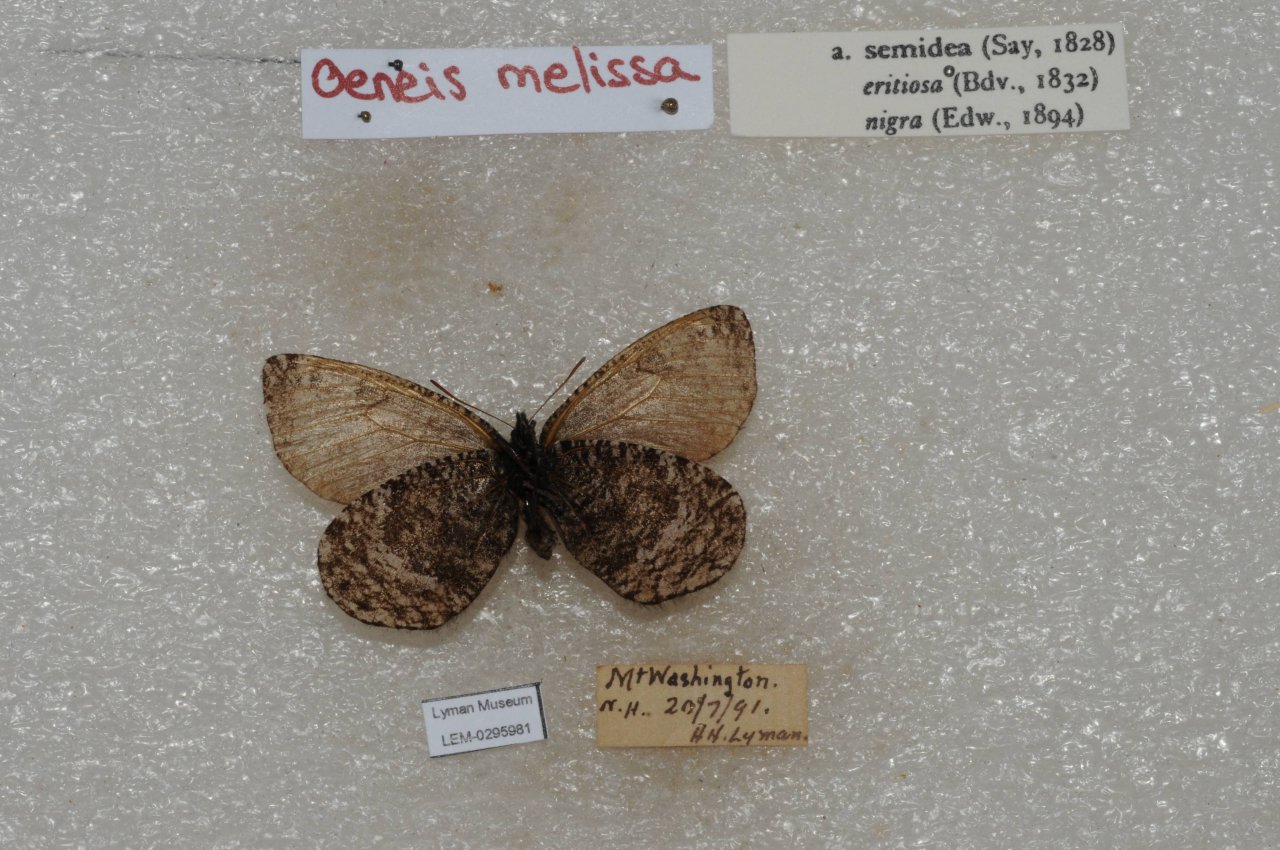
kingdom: Animalia
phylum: Arthropoda
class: Insecta
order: Lepidoptera
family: Nymphalidae
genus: Oeneis
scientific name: Oeneis melissa
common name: Melissa Arctic
